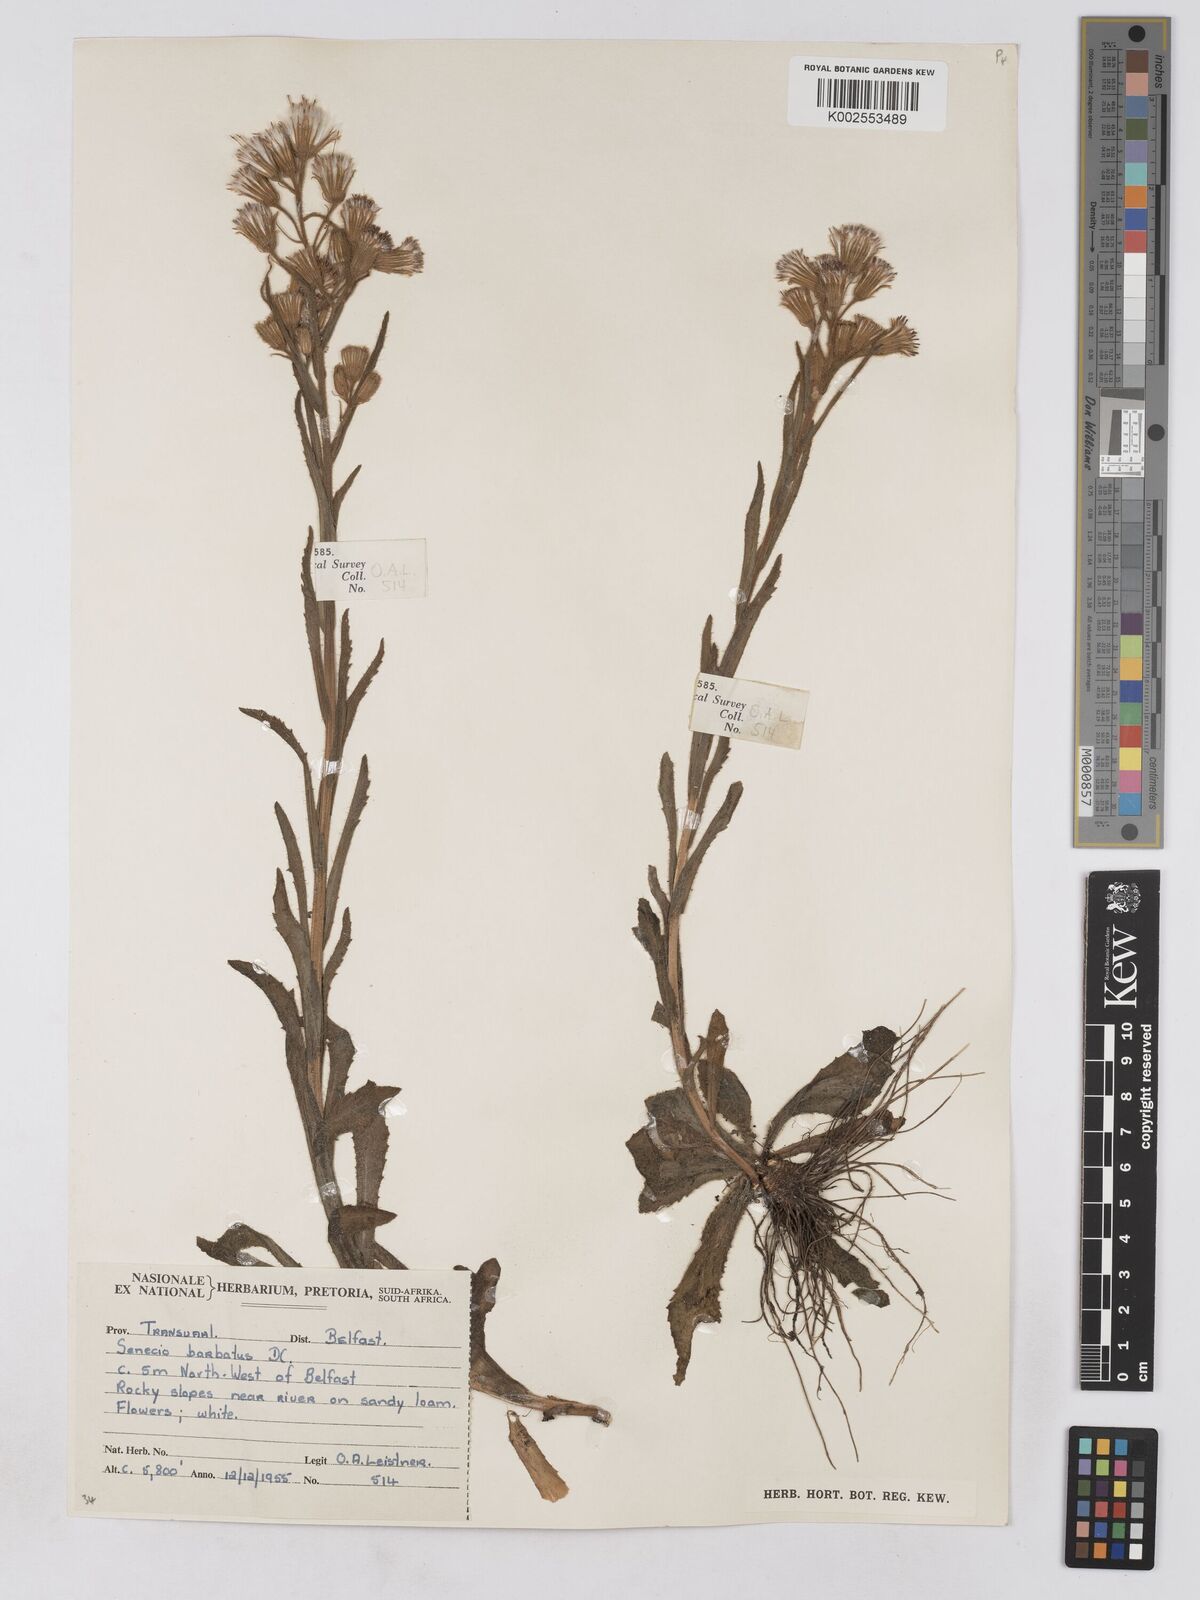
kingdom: Plantae
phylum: Tracheophyta
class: Magnoliopsida
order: Asterales
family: Asteraceae
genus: Senecio
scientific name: Senecio barbatus
